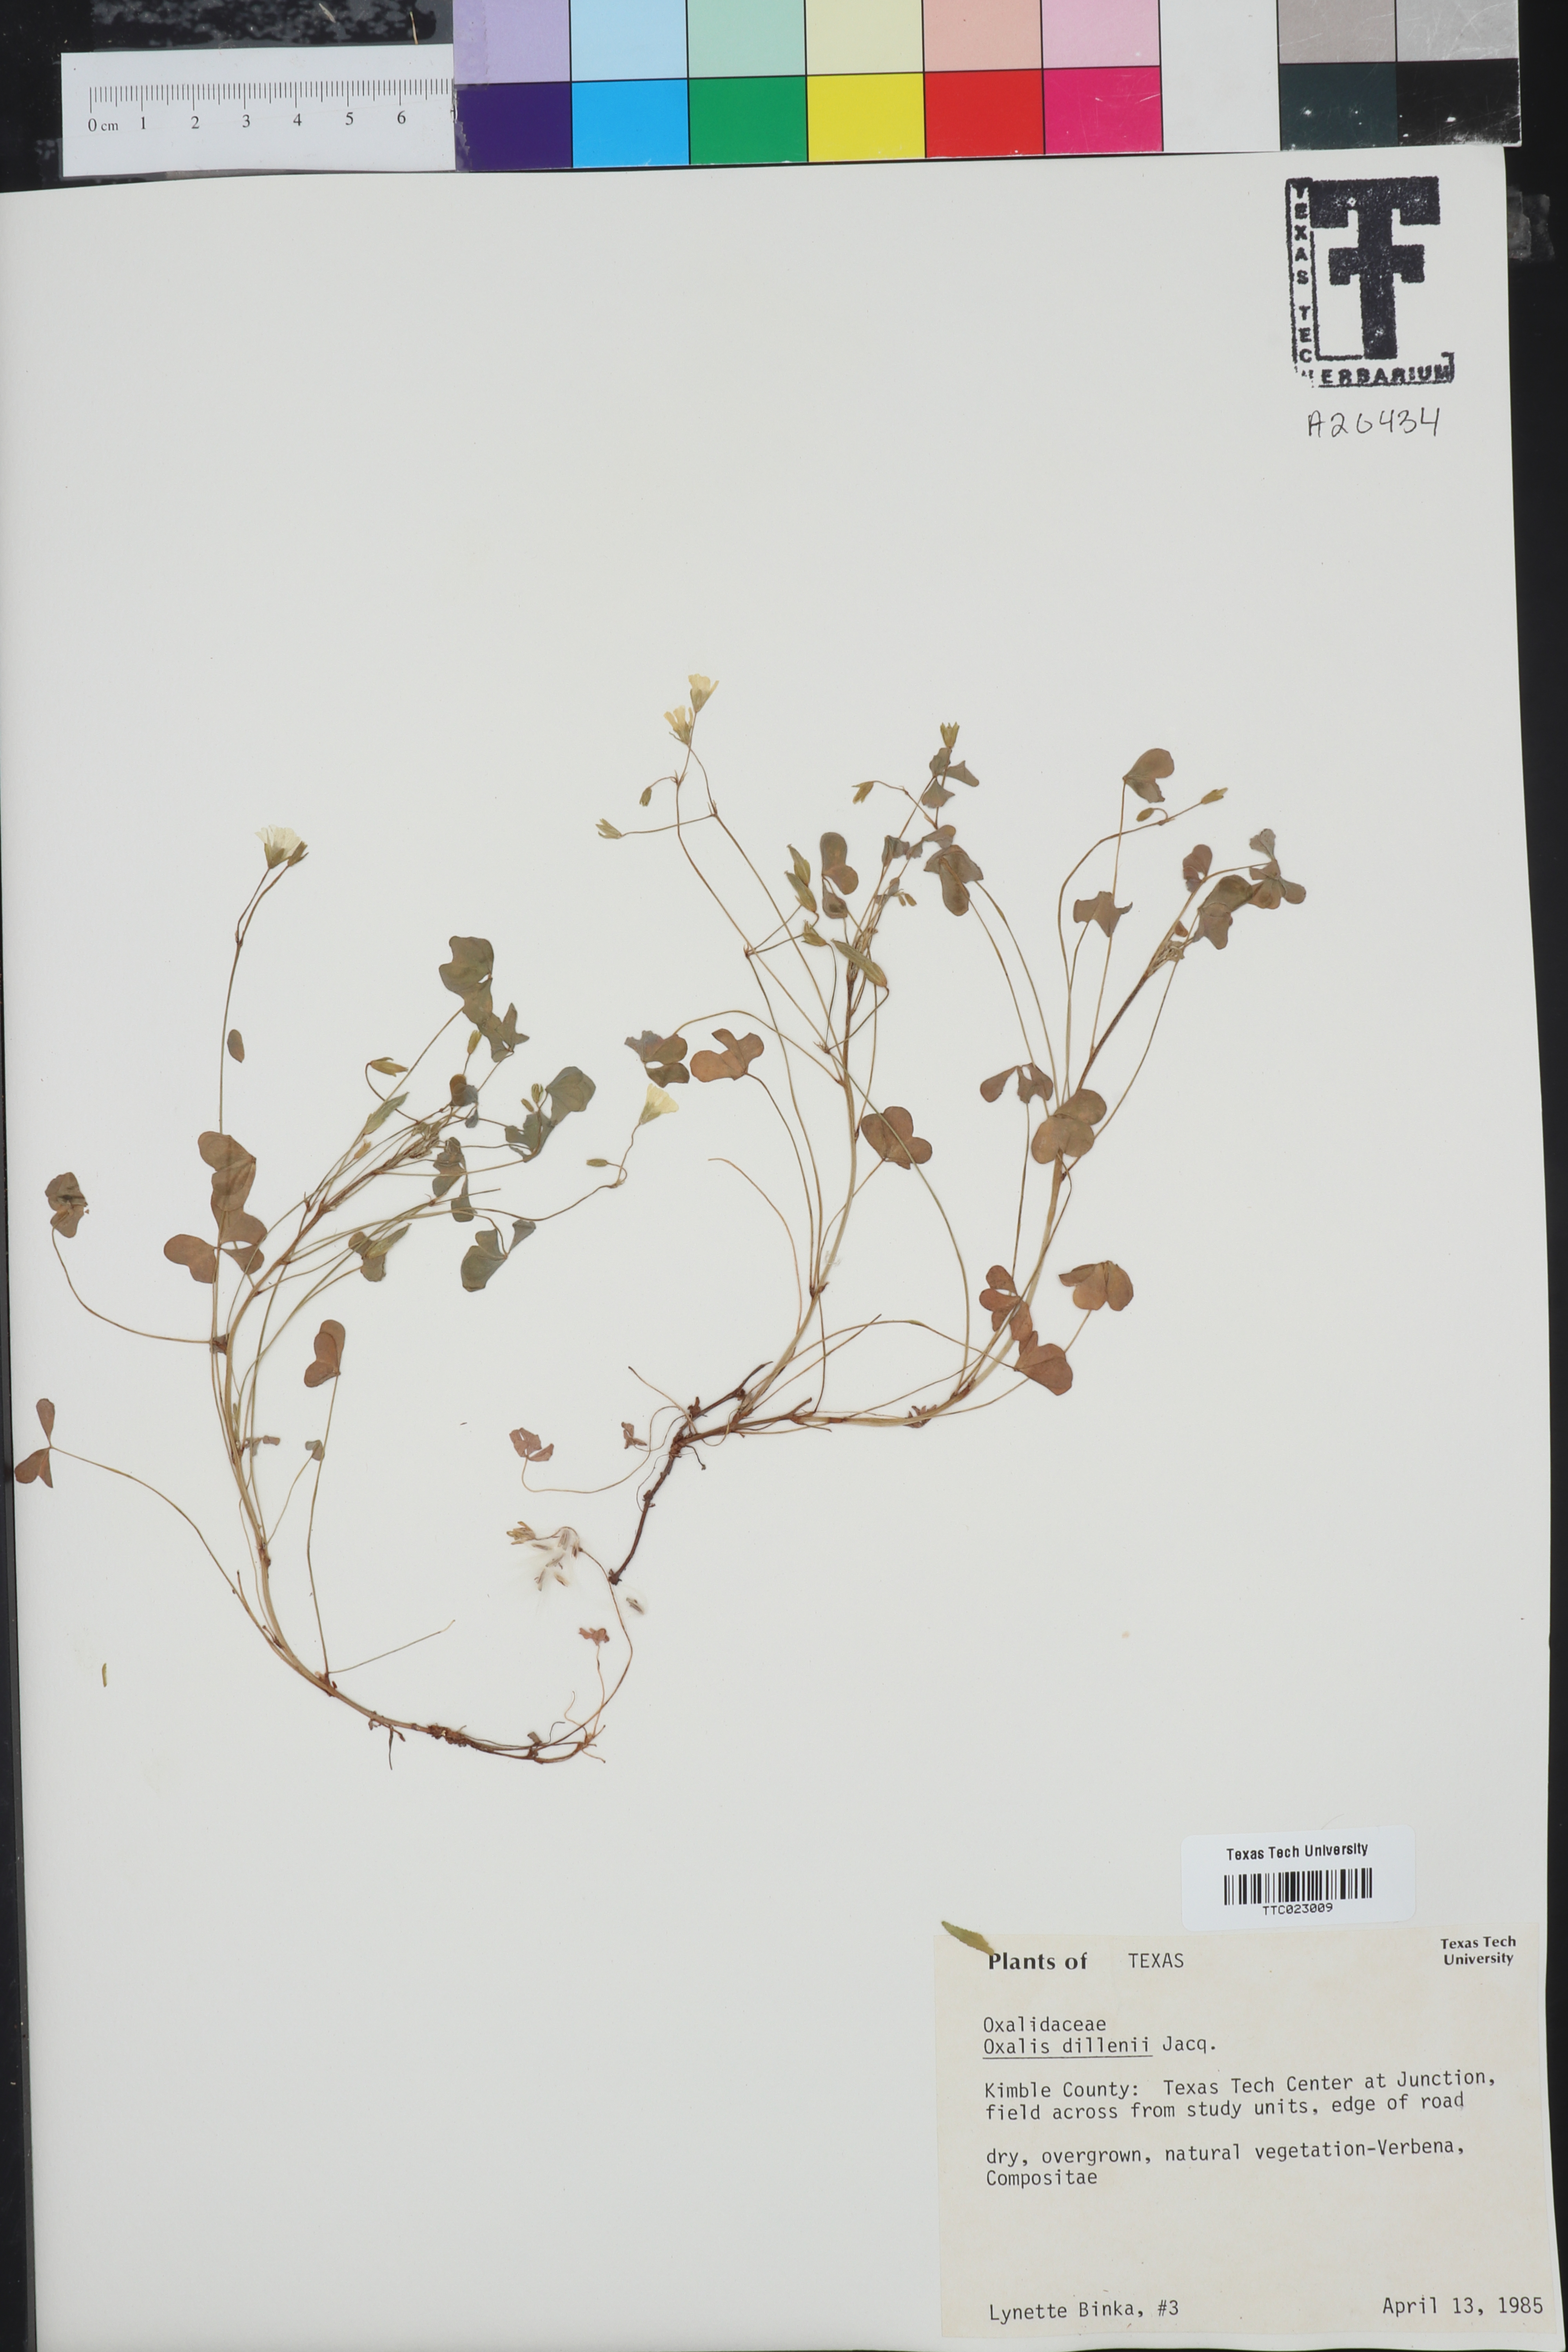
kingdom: Plantae
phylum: Tracheophyta
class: Magnoliopsida
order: Oxalidales
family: Oxalidaceae
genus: Oxalis
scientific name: Oxalis dillenii
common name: Sussex yellow-sorrel
